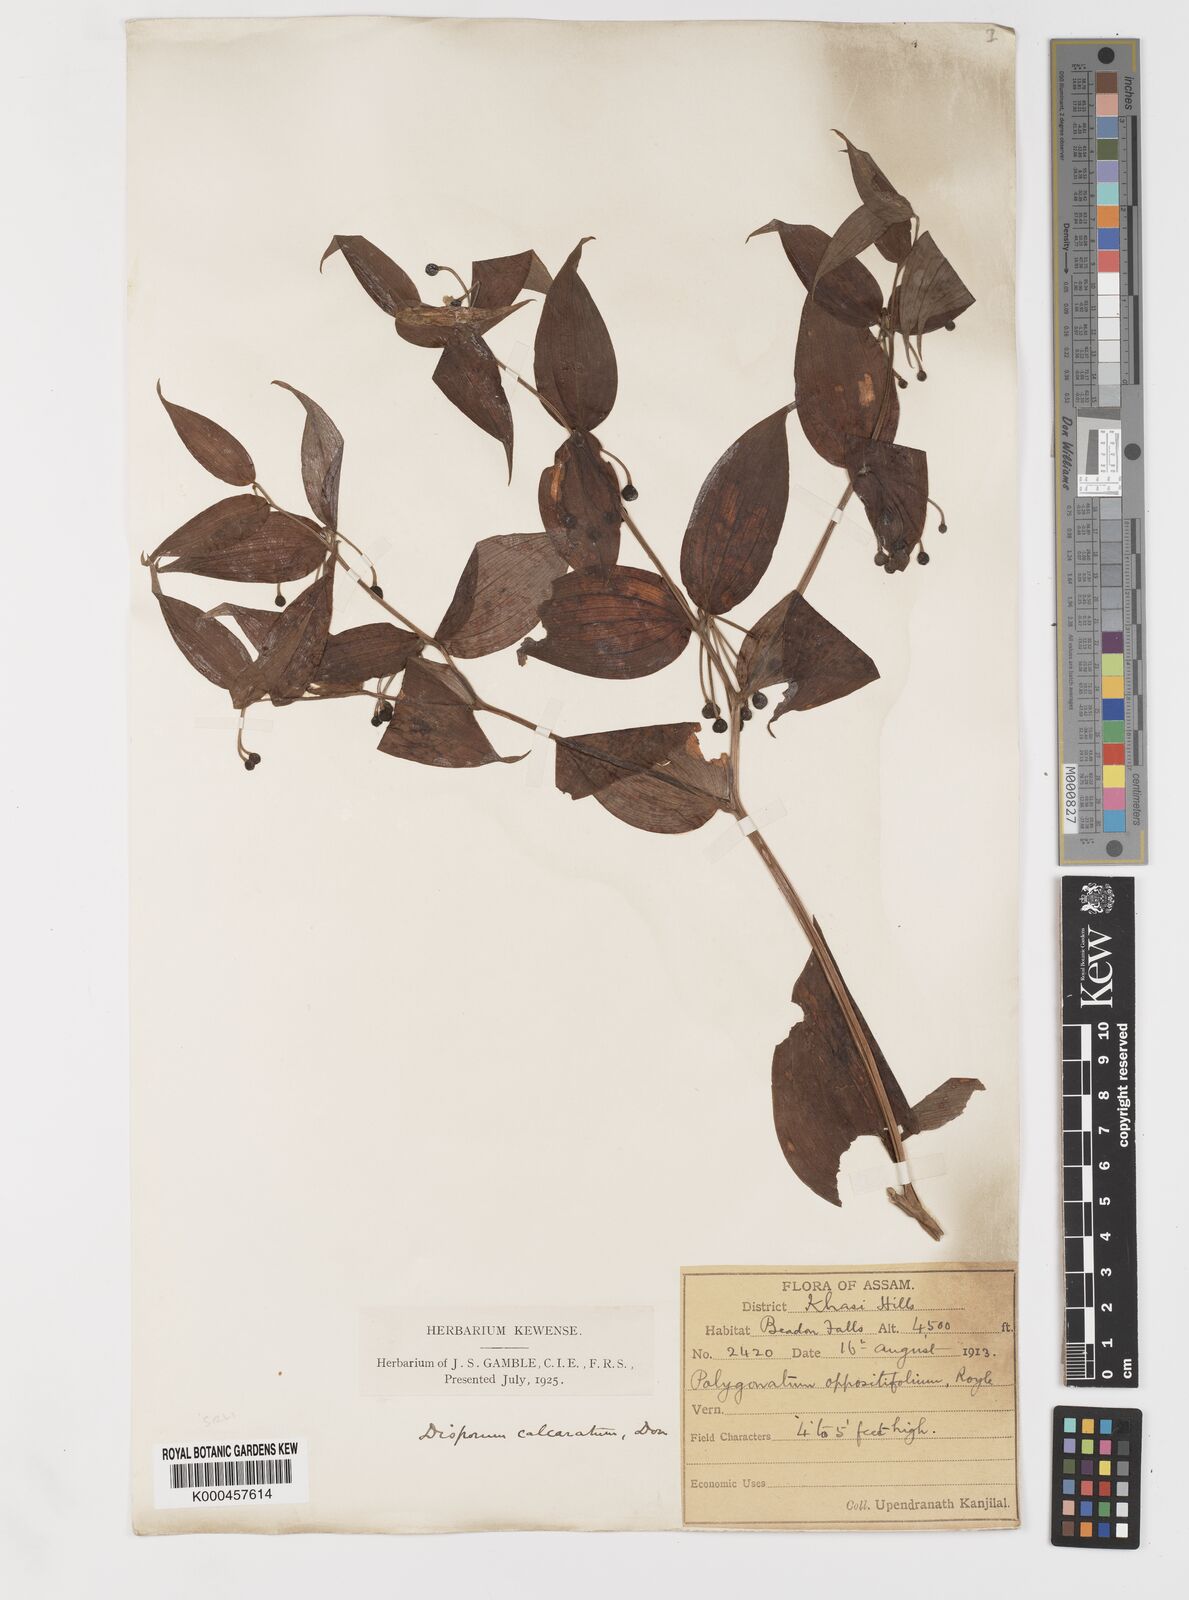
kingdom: Plantae
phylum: Tracheophyta
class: Liliopsida
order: Liliales
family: Colchicaceae
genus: Disporum
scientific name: Disporum calcaratum
